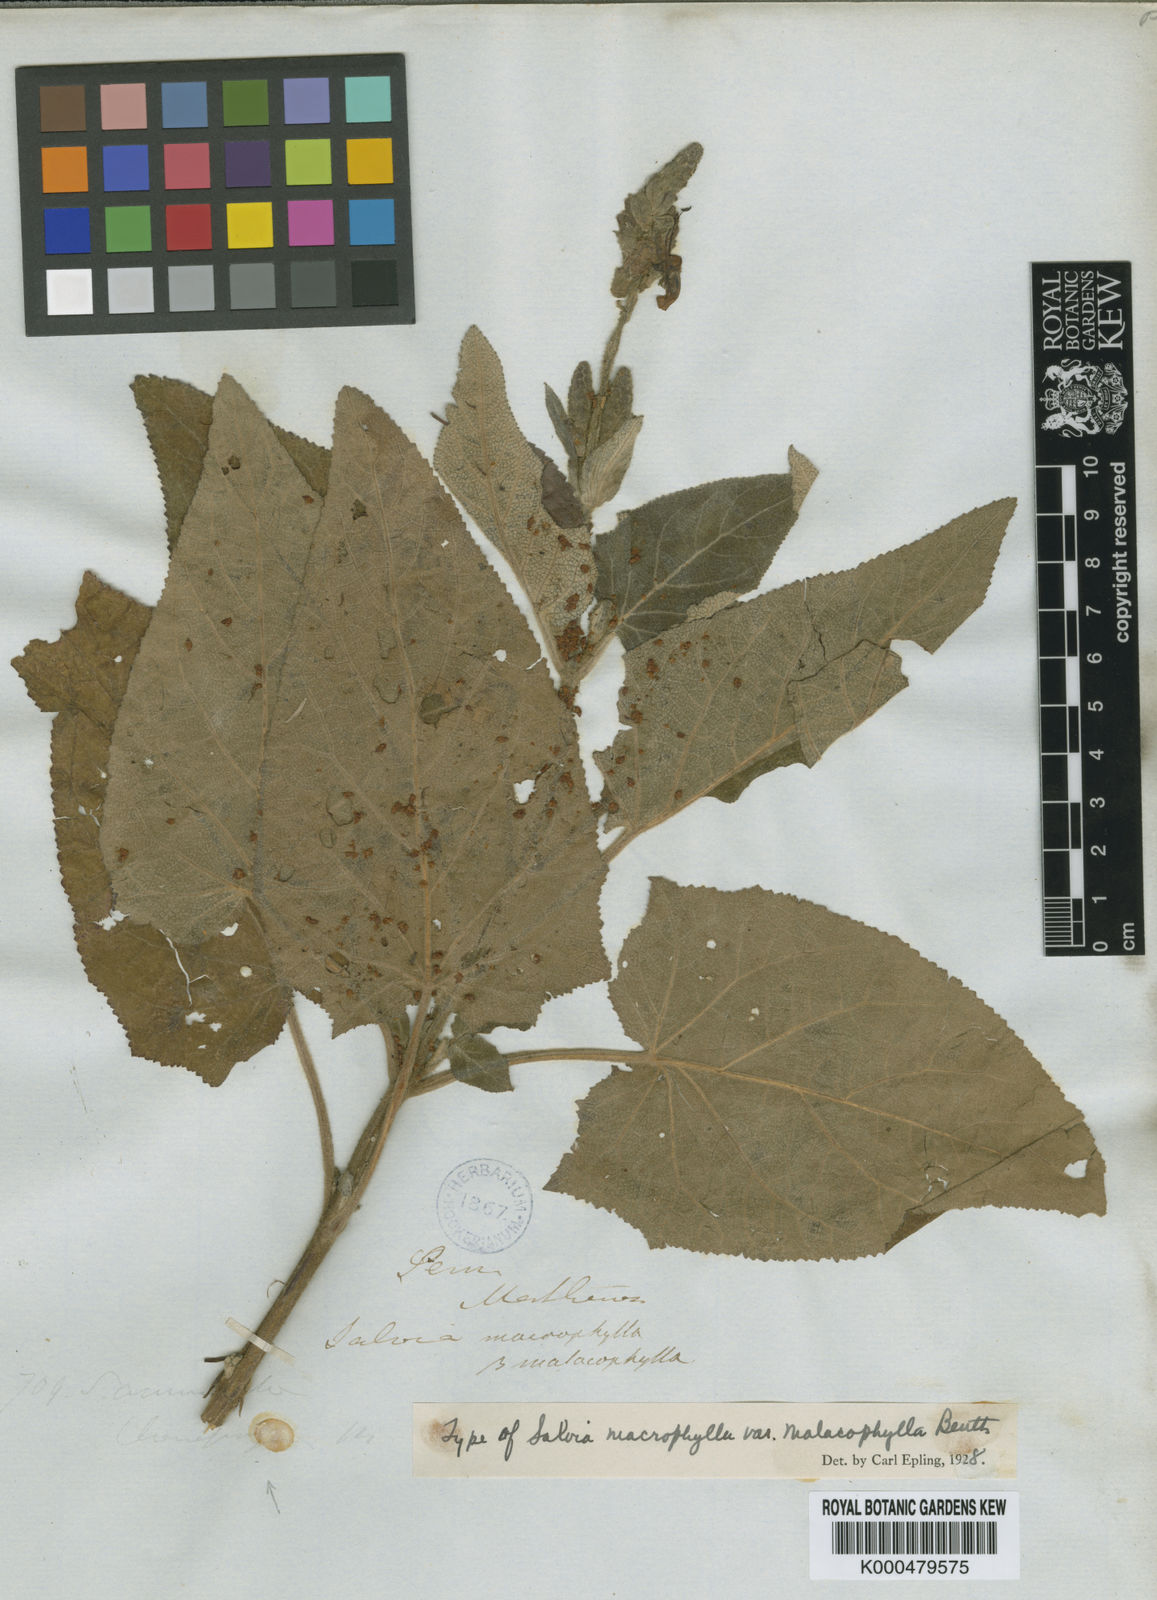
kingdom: Plantae
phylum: Tracheophyta
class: Magnoliopsida
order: Lamiales
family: Lamiaceae
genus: Salvia
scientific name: Salvia macrophylla
